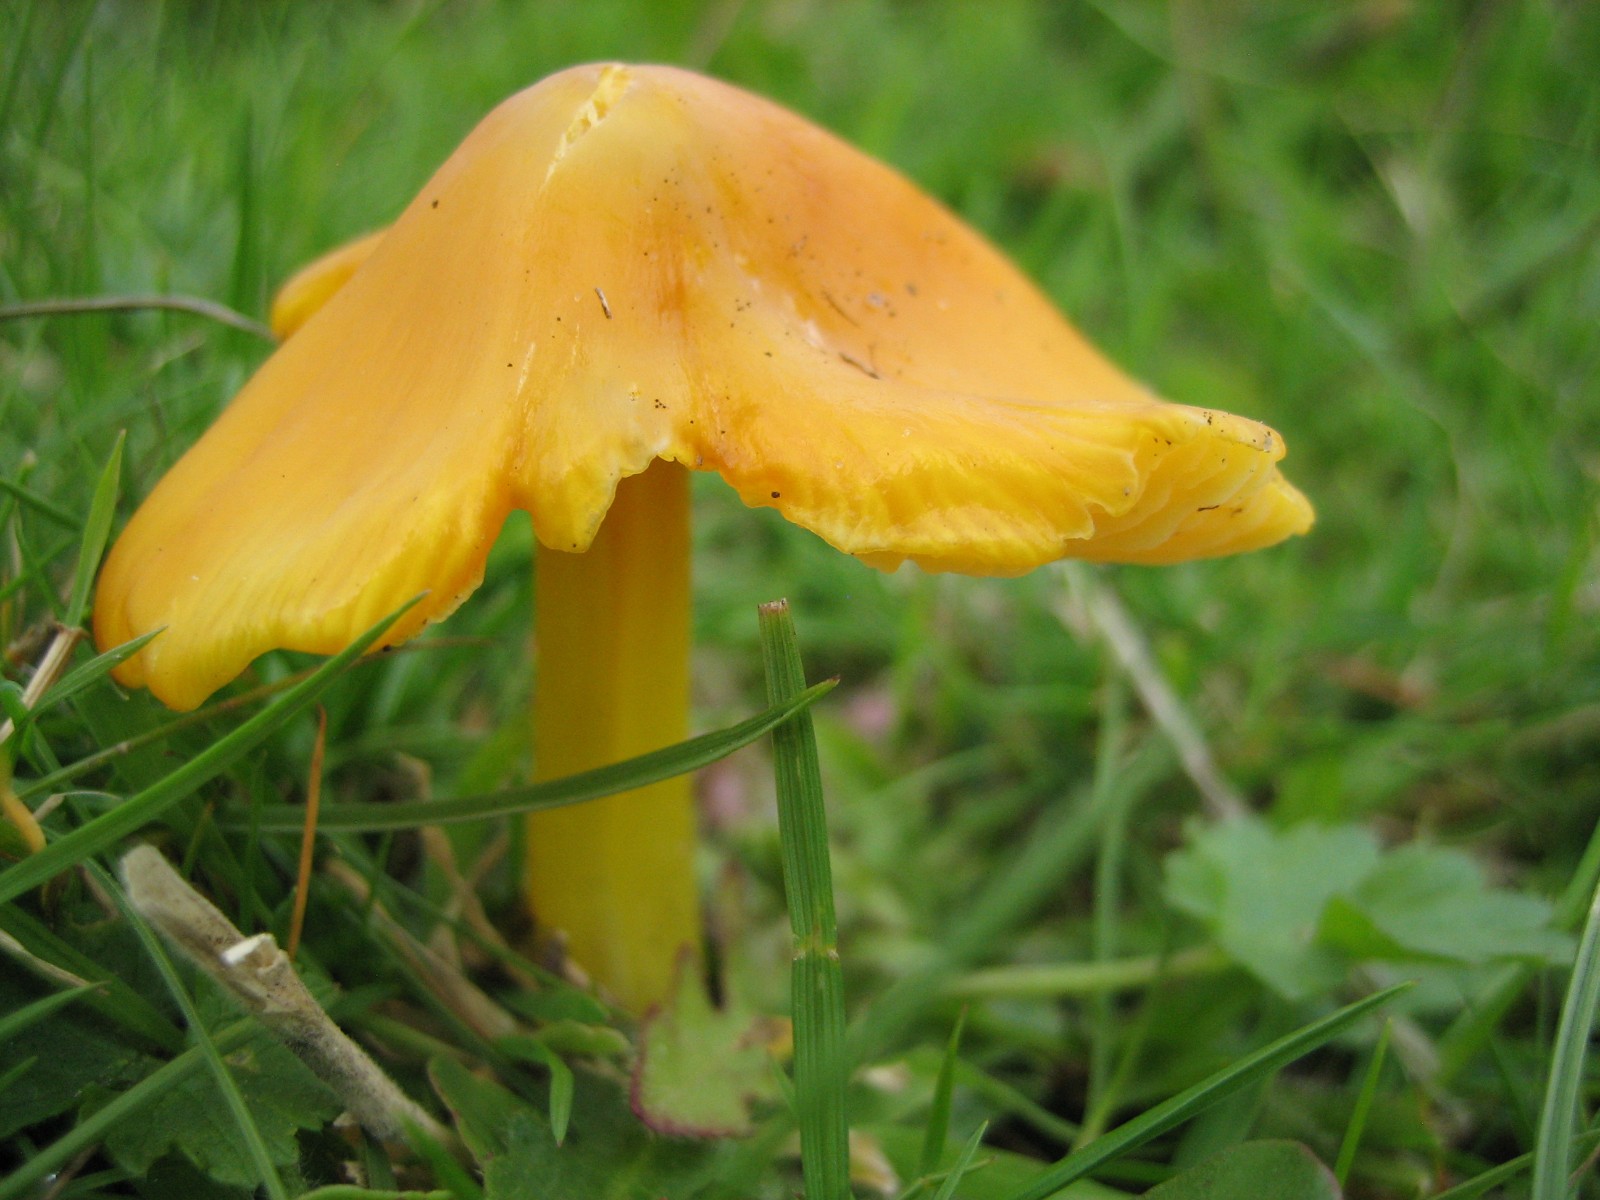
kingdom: Fungi
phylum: Basidiomycota
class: Agaricomycetes
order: Agaricales
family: Hygrophoraceae
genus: Hygrocybe
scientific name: Hygrocybe
